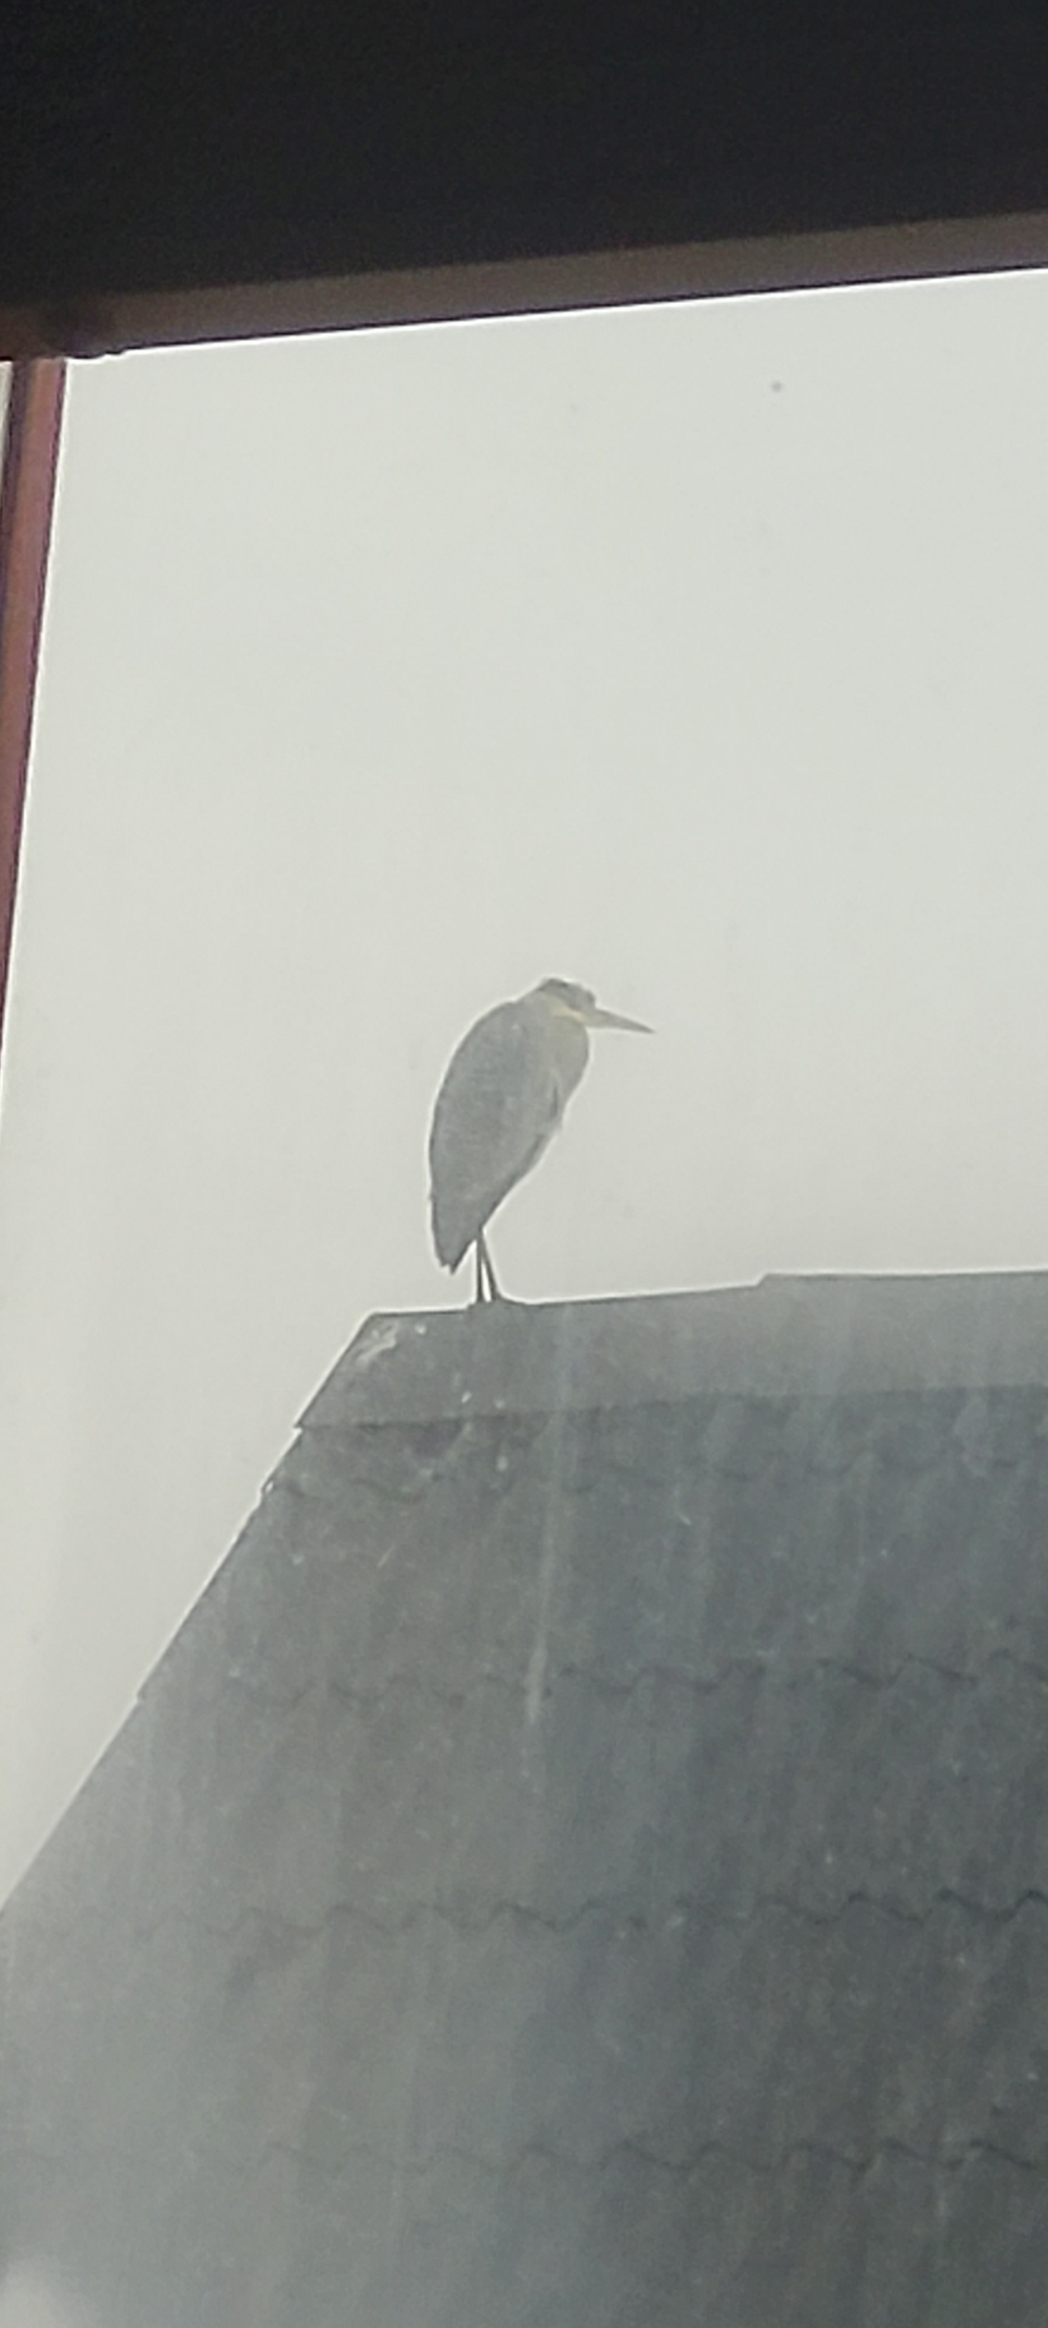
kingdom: Animalia
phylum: Chordata
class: Aves
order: Pelecaniformes
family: Ardeidae
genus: Ardea
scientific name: Ardea cinerea
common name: Fiskehejre
